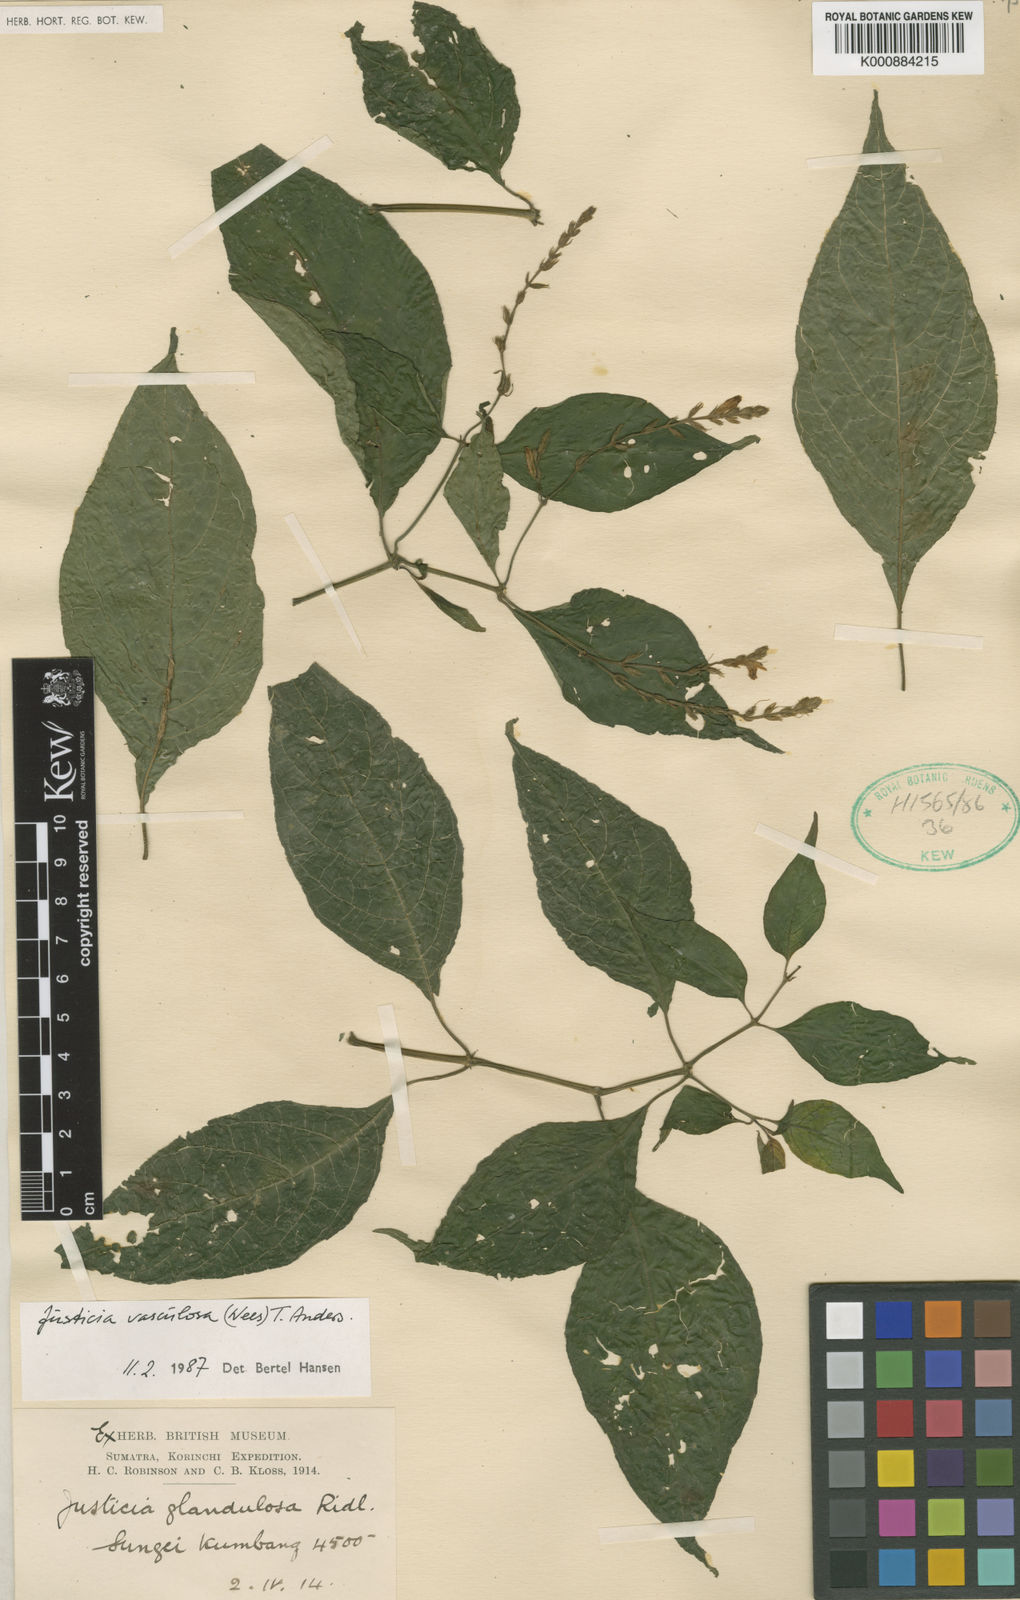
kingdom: Plantae
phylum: Tracheophyta
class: Magnoliopsida
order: Lamiales
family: Acanthaceae
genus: Justicia
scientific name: Justicia vasculosa
